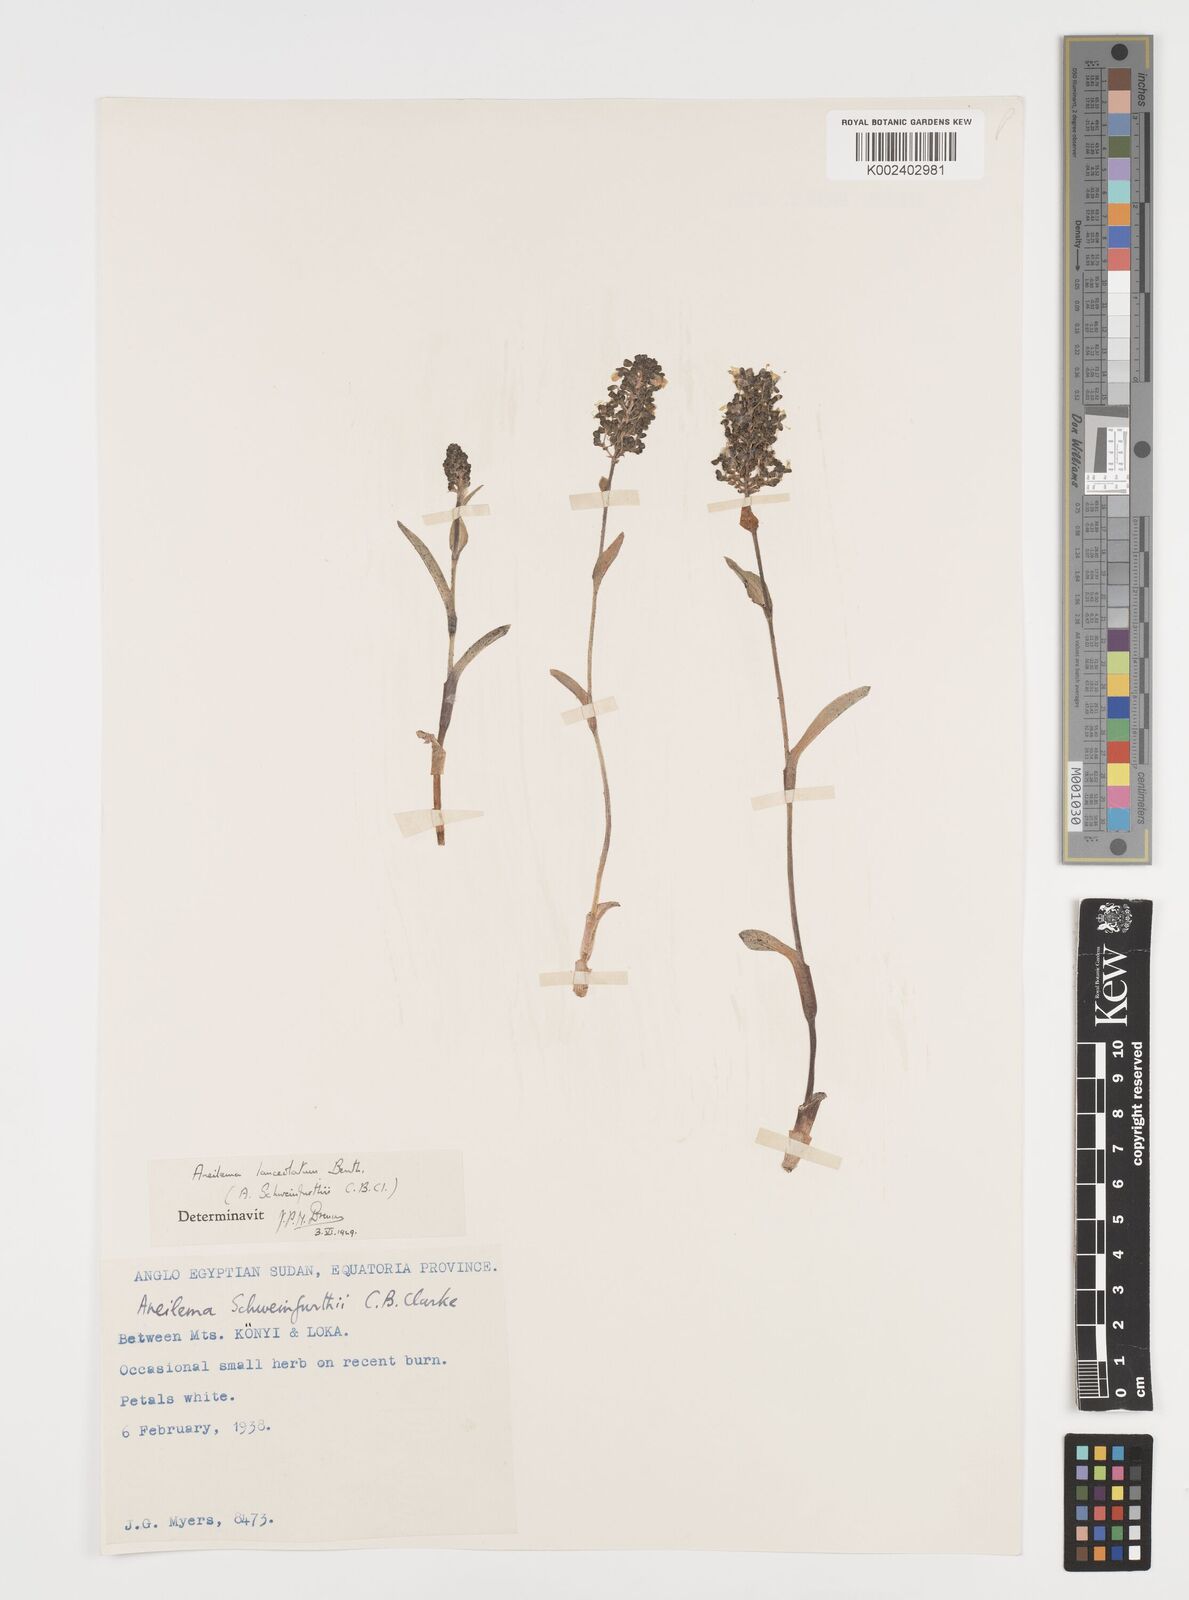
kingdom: Plantae
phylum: Tracheophyta
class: Liliopsida
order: Commelinales
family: Commelinaceae
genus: Aneilema
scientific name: Aneilema lanceolatum
